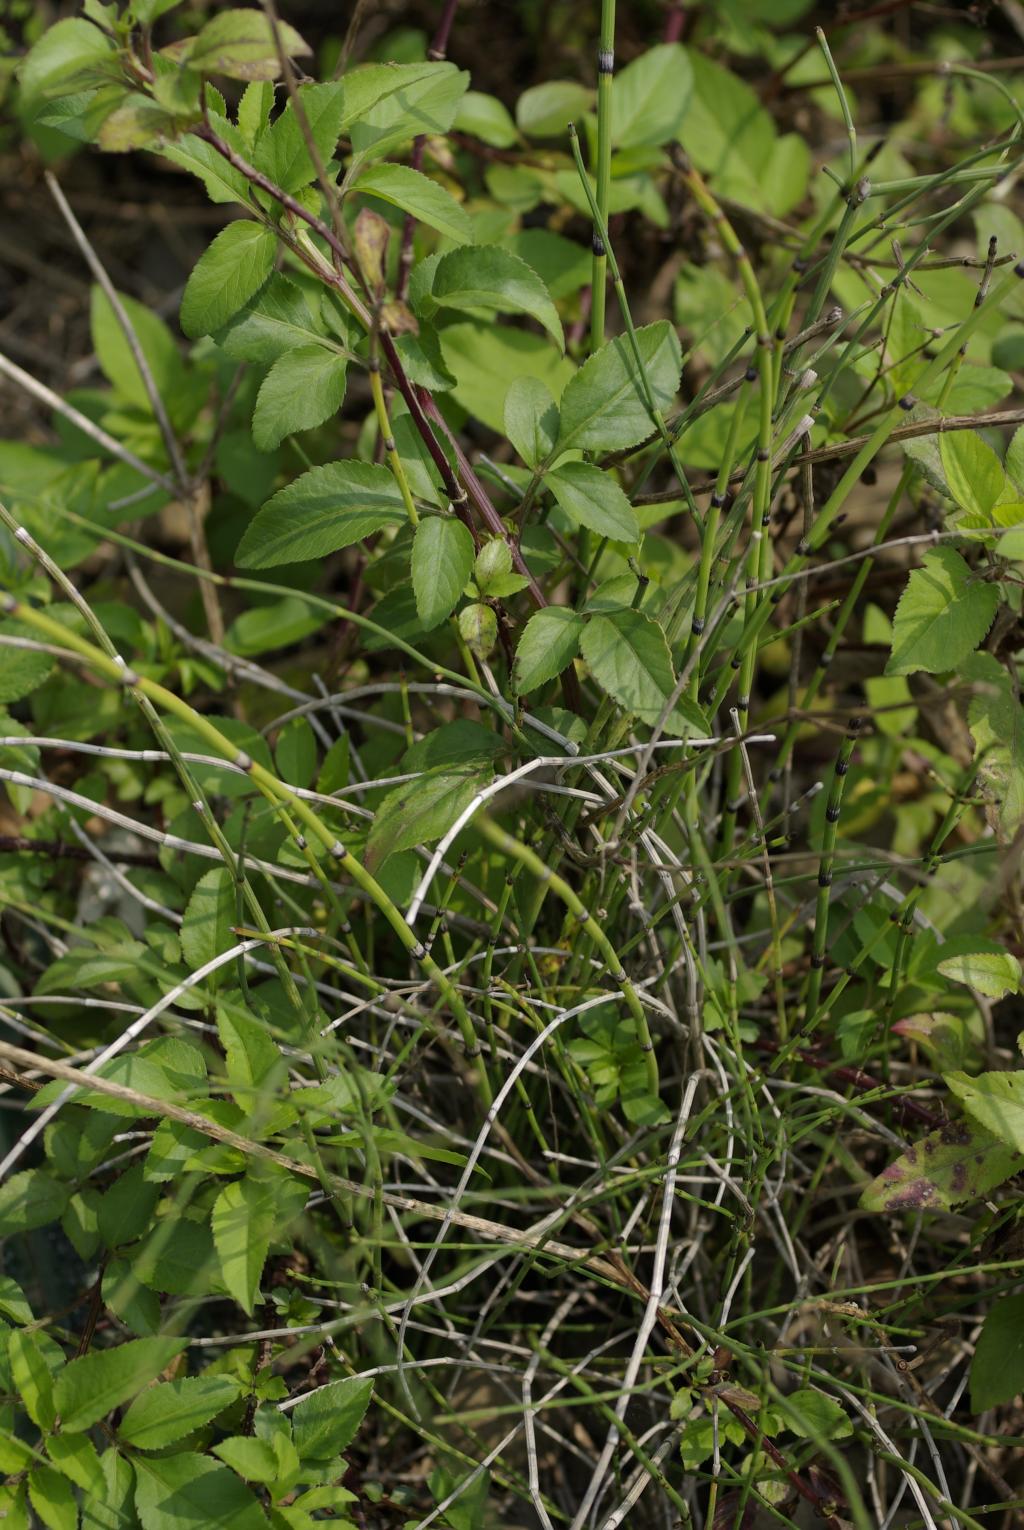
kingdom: Plantae
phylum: Tracheophyta
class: Polypodiopsida
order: Equisetales
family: Equisetaceae
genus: Equisetum
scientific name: Equisetum ramosissimum
